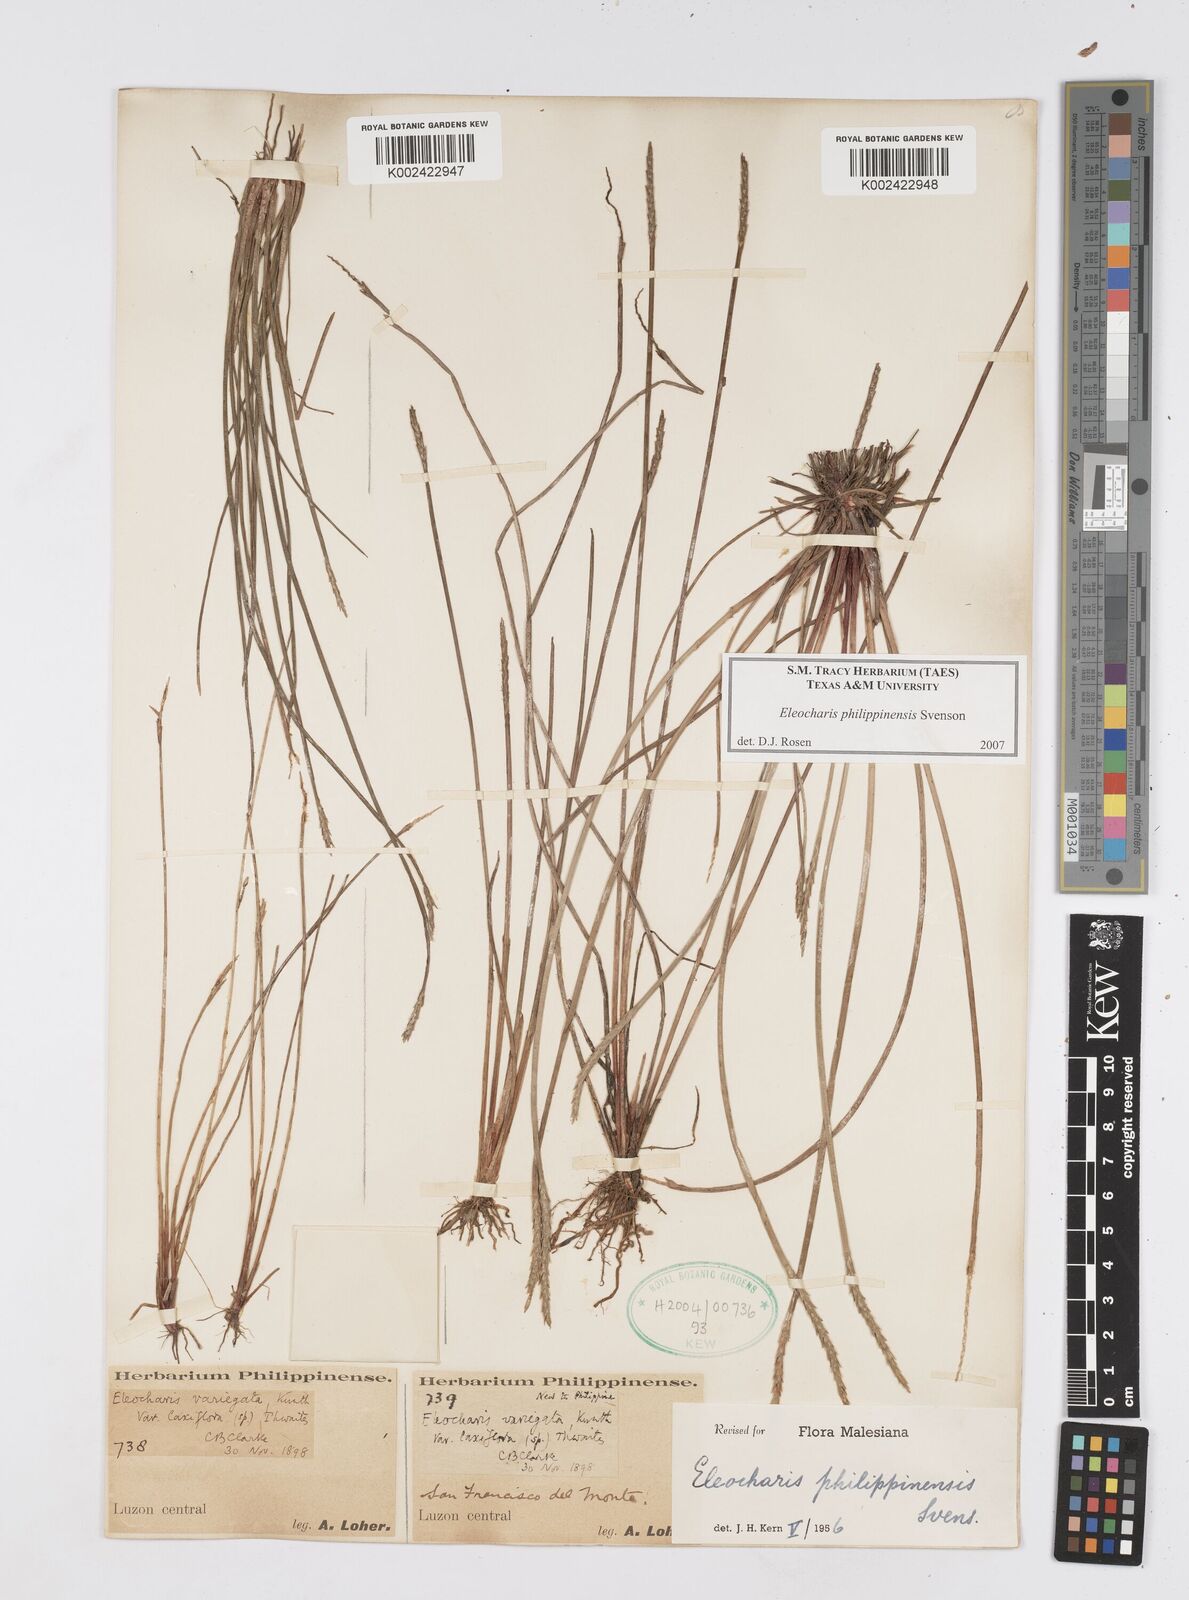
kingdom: Plantae
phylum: Tracheophyta
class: Liliopsida
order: Poales
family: Cyperaceae
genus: Eleocharis
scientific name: Eleocharis philippinensis
